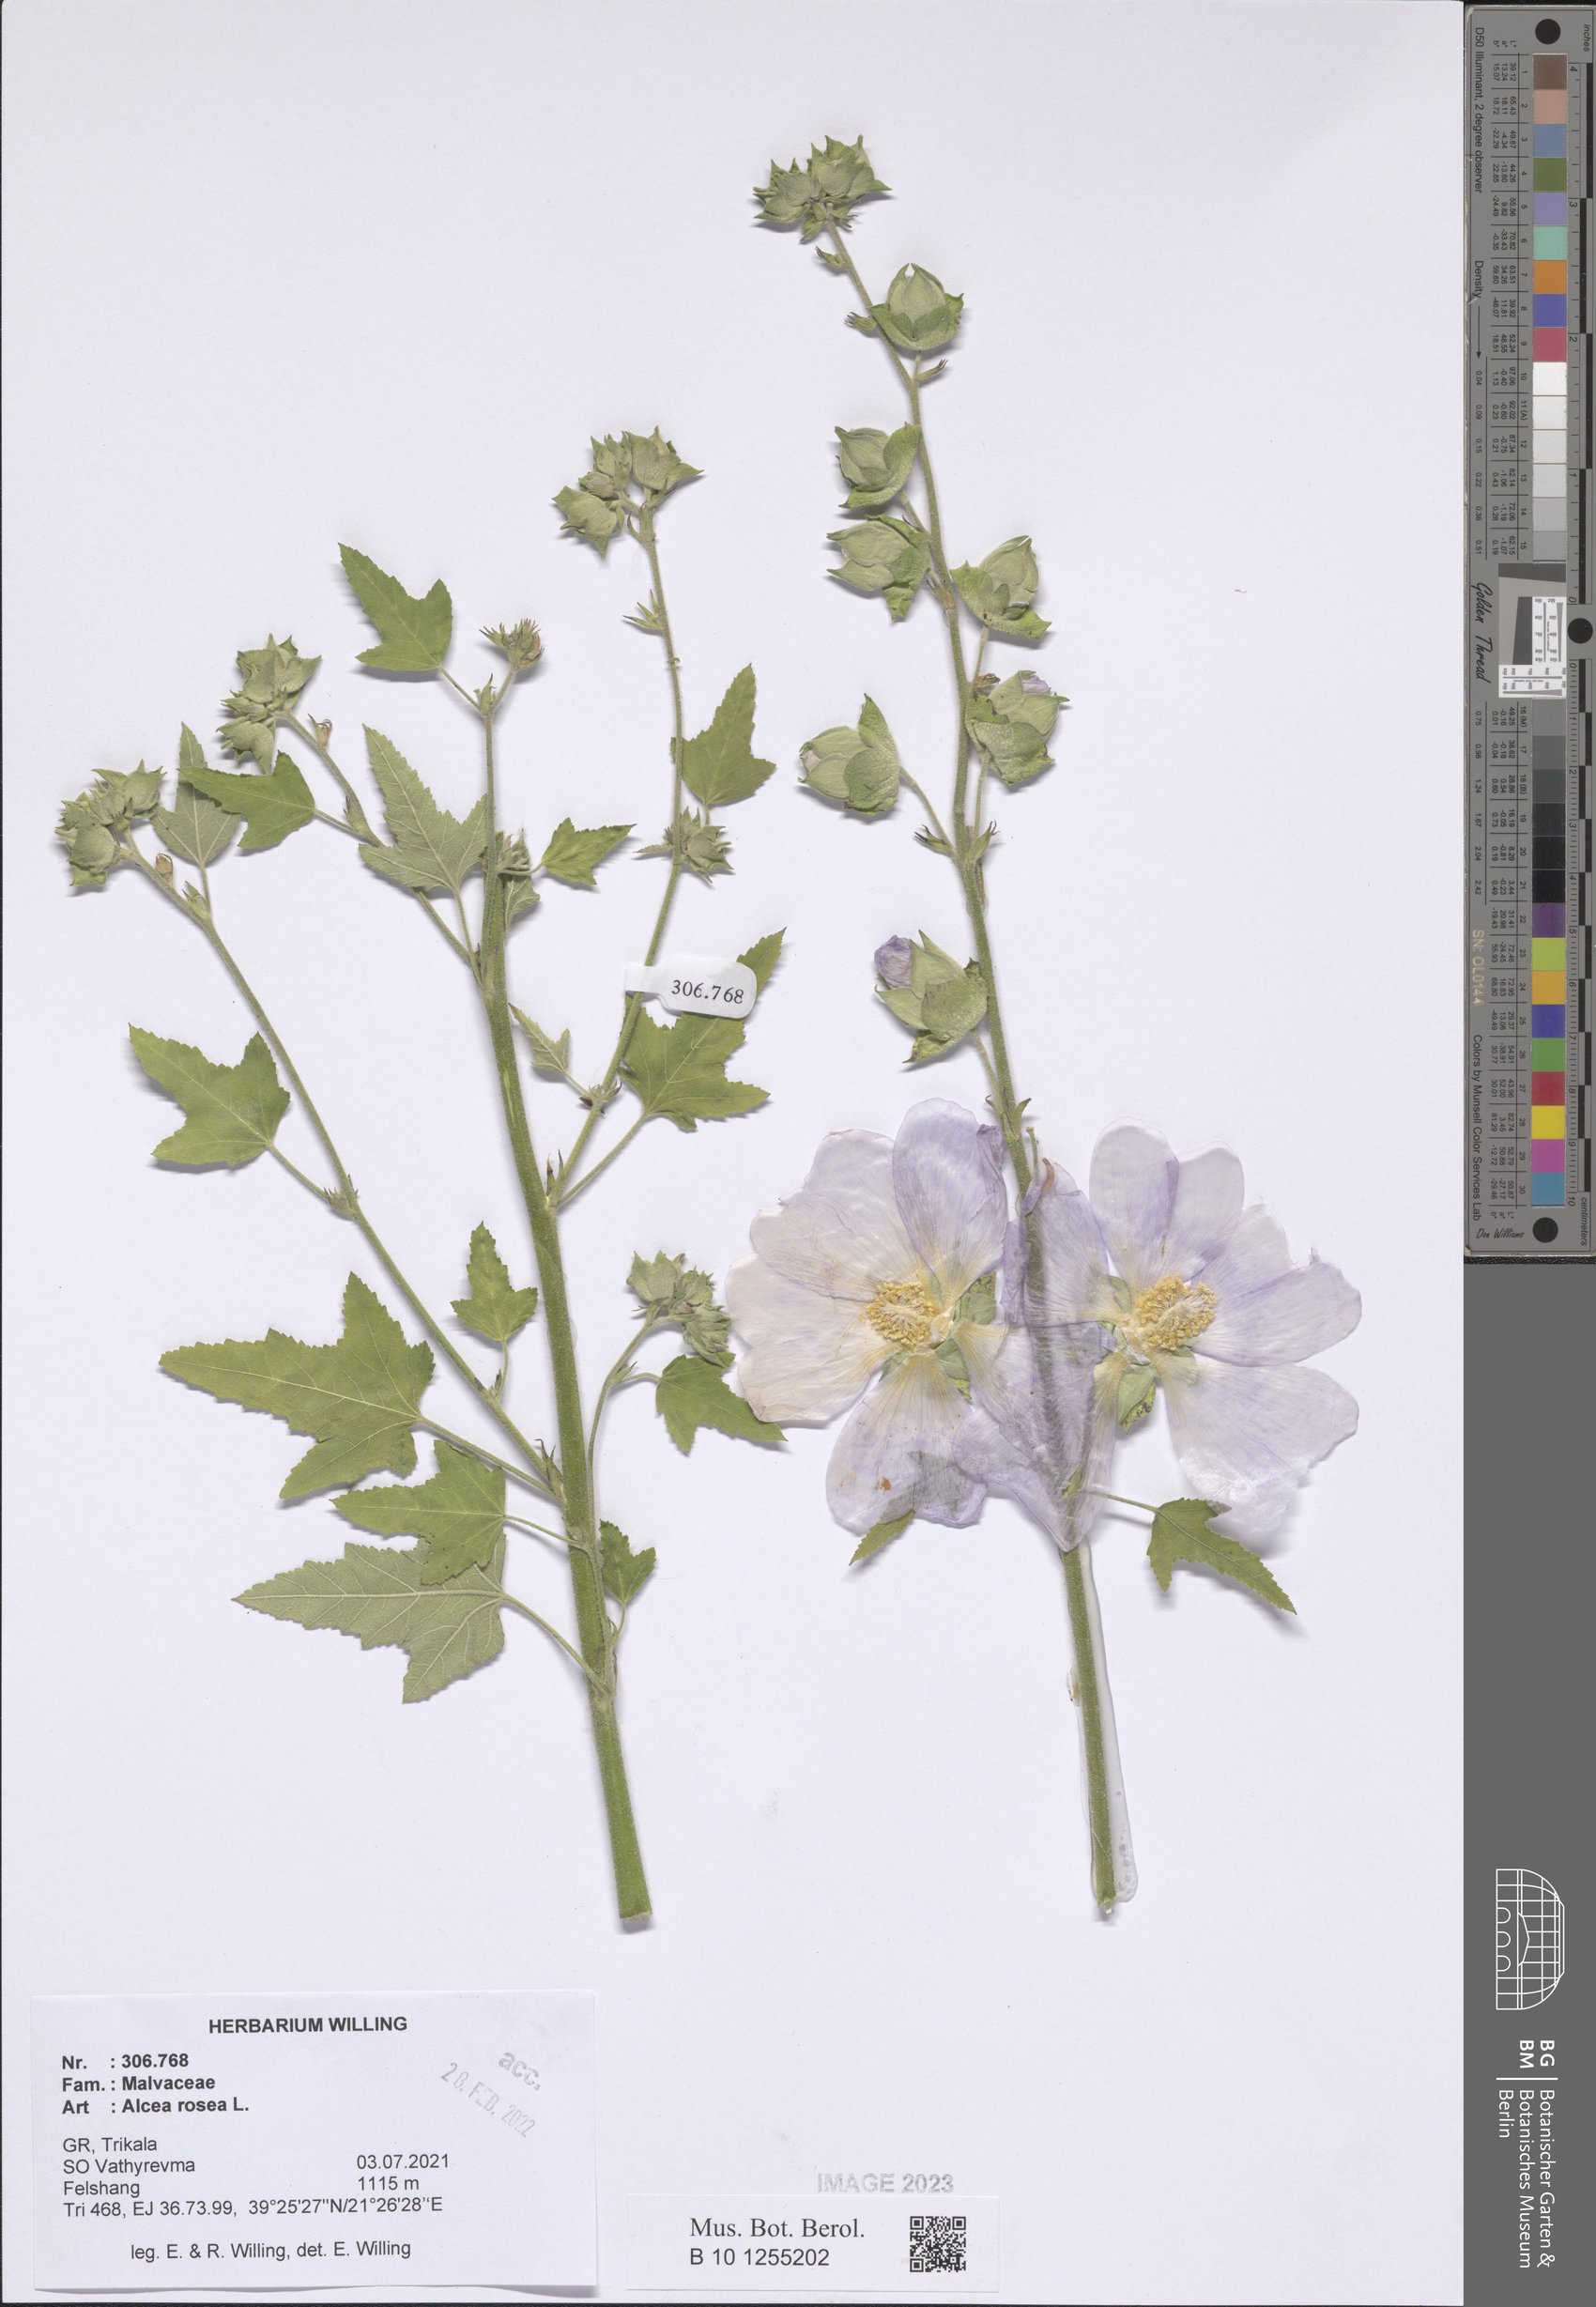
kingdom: Plantae
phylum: Tracheophyta
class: Magnoliopsida
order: Malvales
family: Malvaceae
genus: Alcea
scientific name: Alcea rosea
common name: Hollyhock
